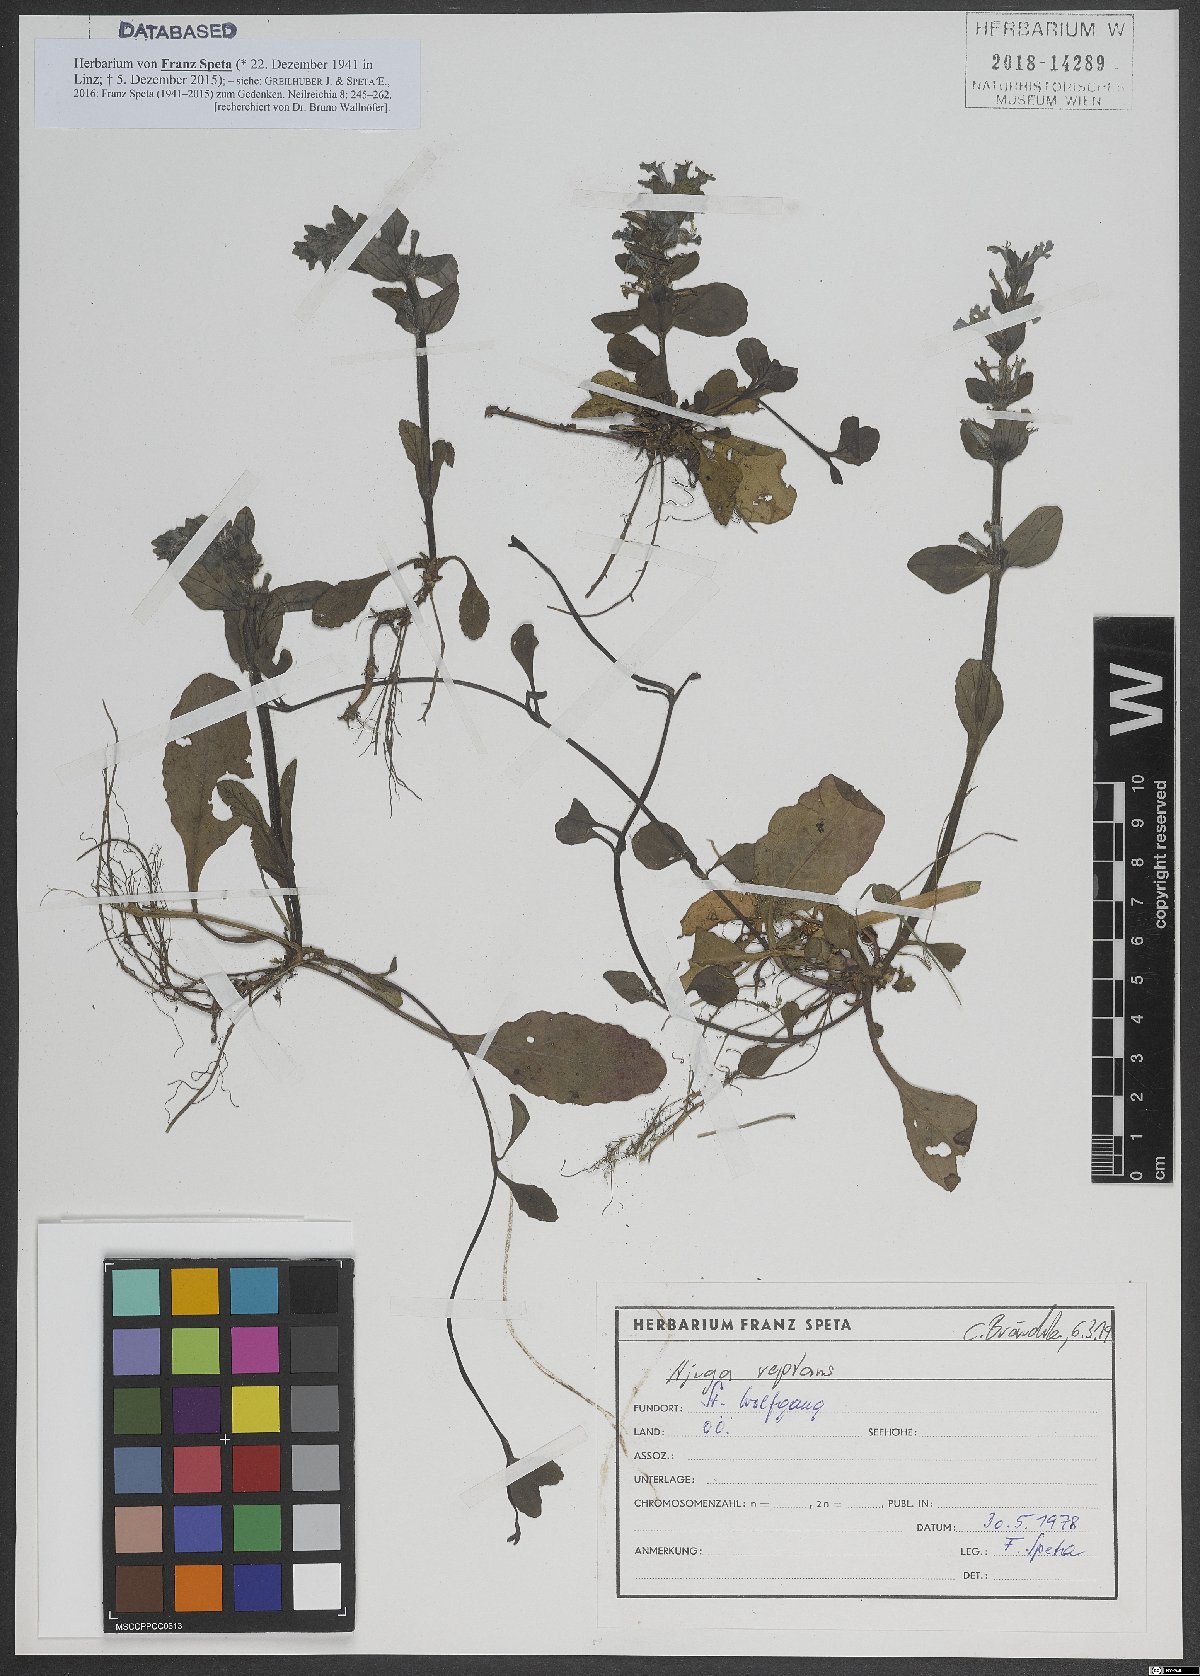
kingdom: Plantae
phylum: Tracheophyta
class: Magnoliopsida
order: Lamiales
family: Lamiaceae
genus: Ajuga
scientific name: Ajuga
